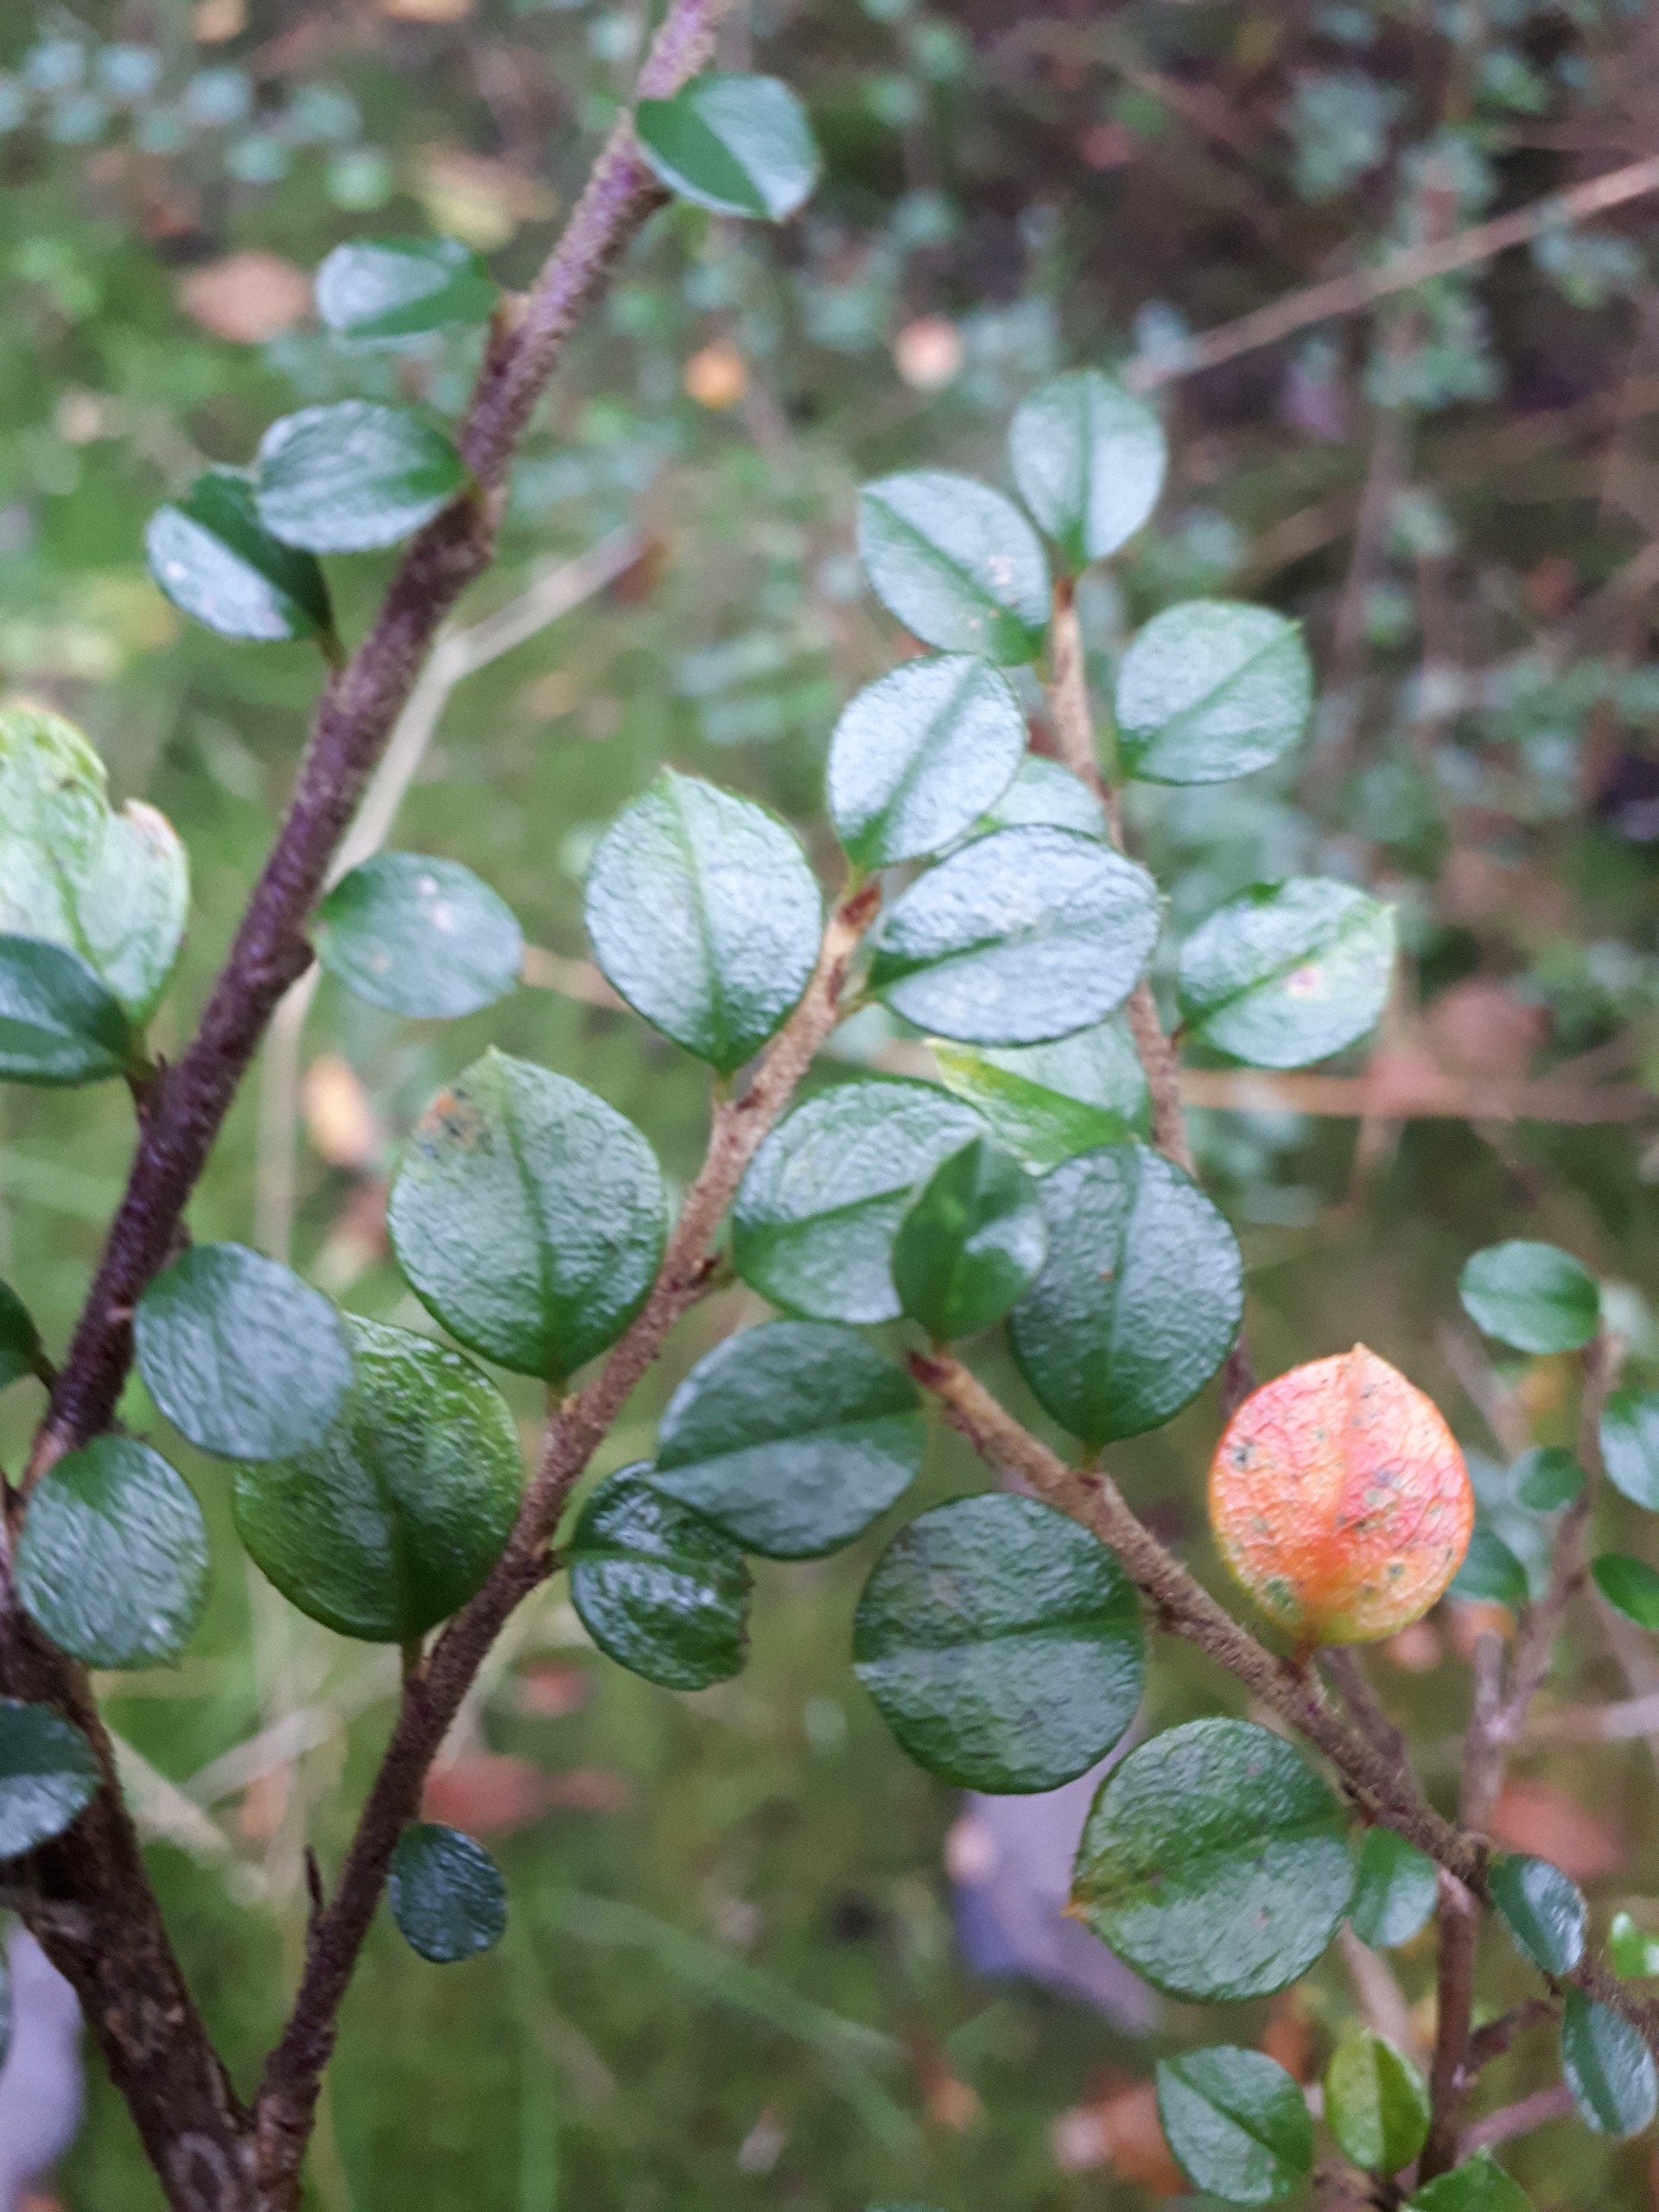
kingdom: Plantae
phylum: Tracheophyta
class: Magnoliopsida
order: Rosales
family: Rosaceae
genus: Cotoneaster
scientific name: Cotoneaster hjelmqvistii
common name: Hjelmqvists dværgmispel
